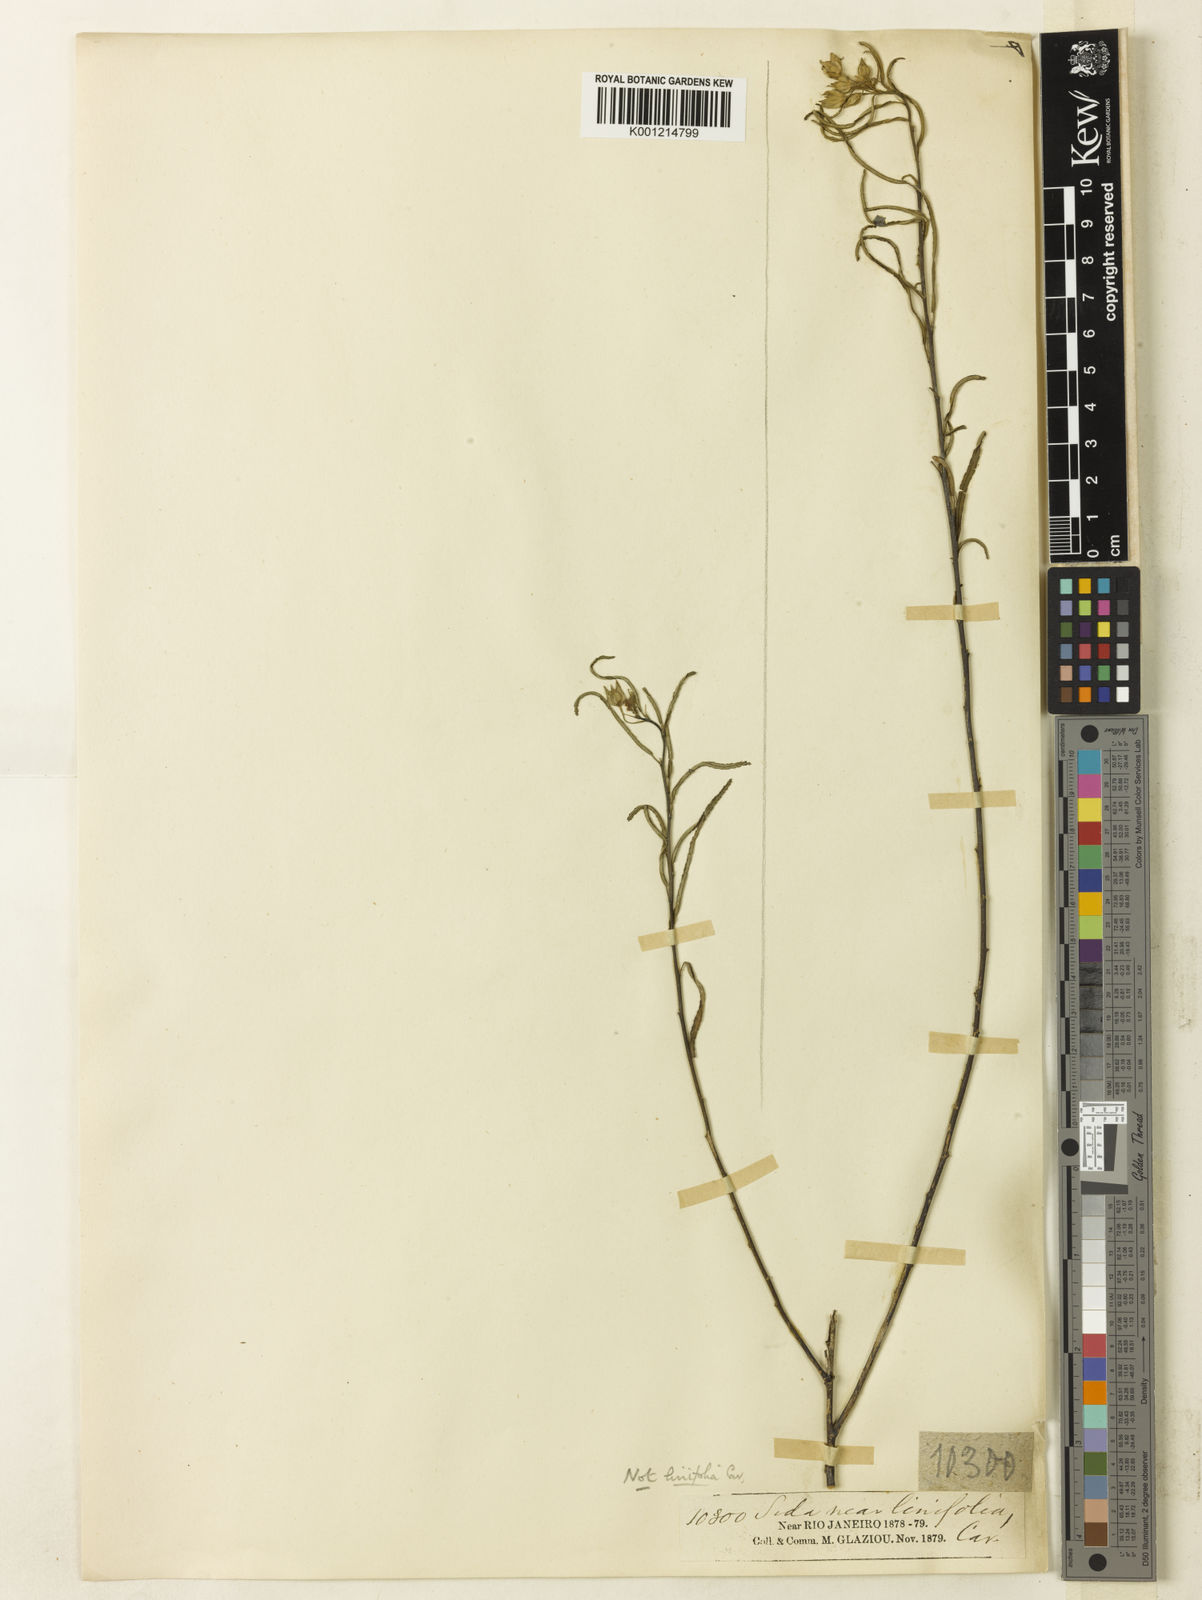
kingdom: Plantae
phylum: Tracheophyta
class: Magnoliopsida
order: Malvales
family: Malvaceae
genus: Sida
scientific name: Sida angustissima
